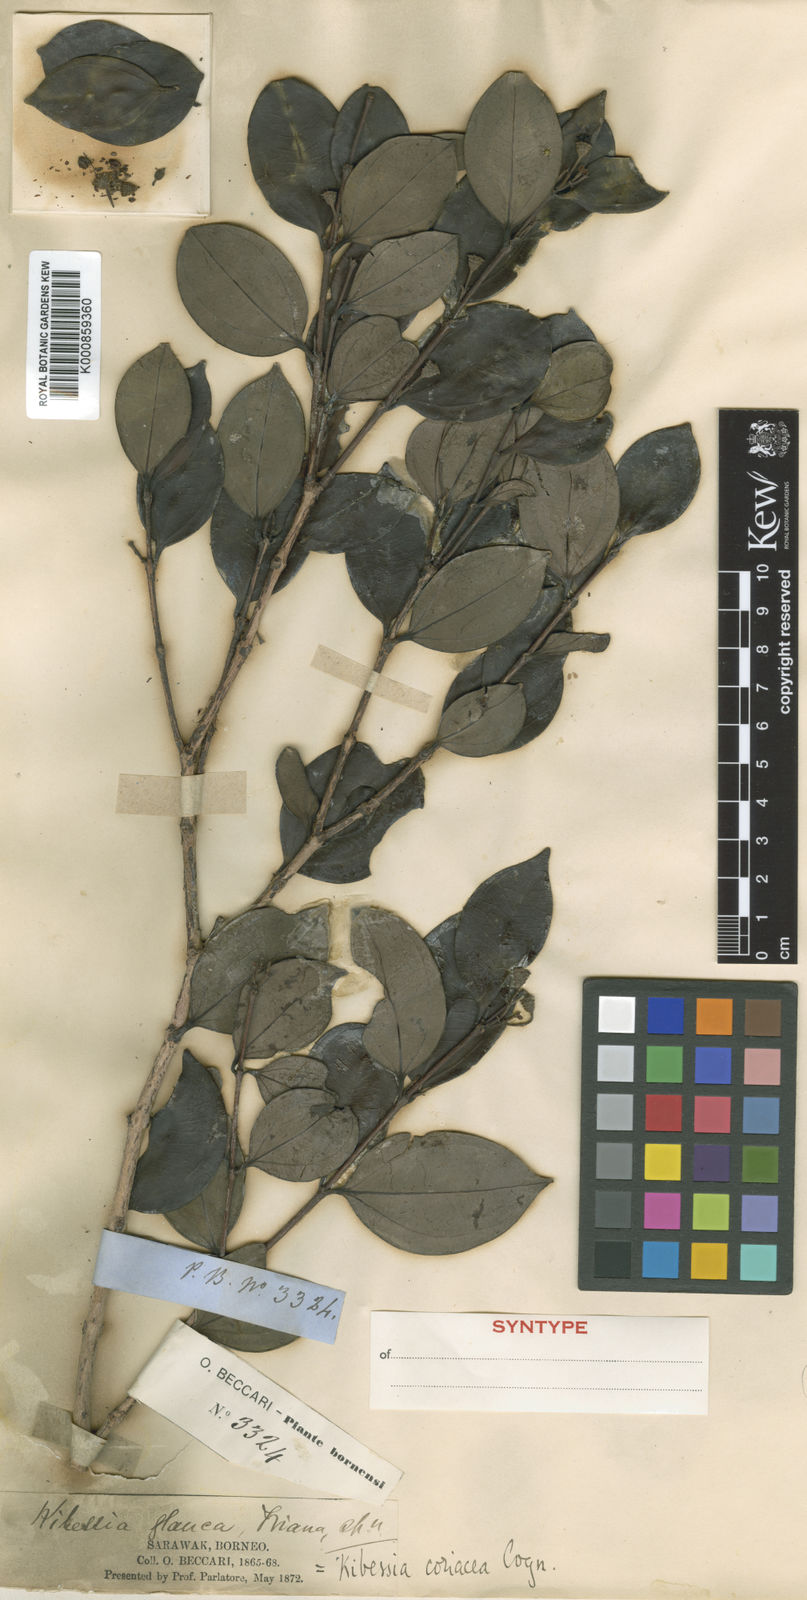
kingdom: Plantae
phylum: Tracheophyta
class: Magnoliopsida
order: Myrtales
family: Melastomataceae
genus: Pternandra
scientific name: Pternandra coriacea
